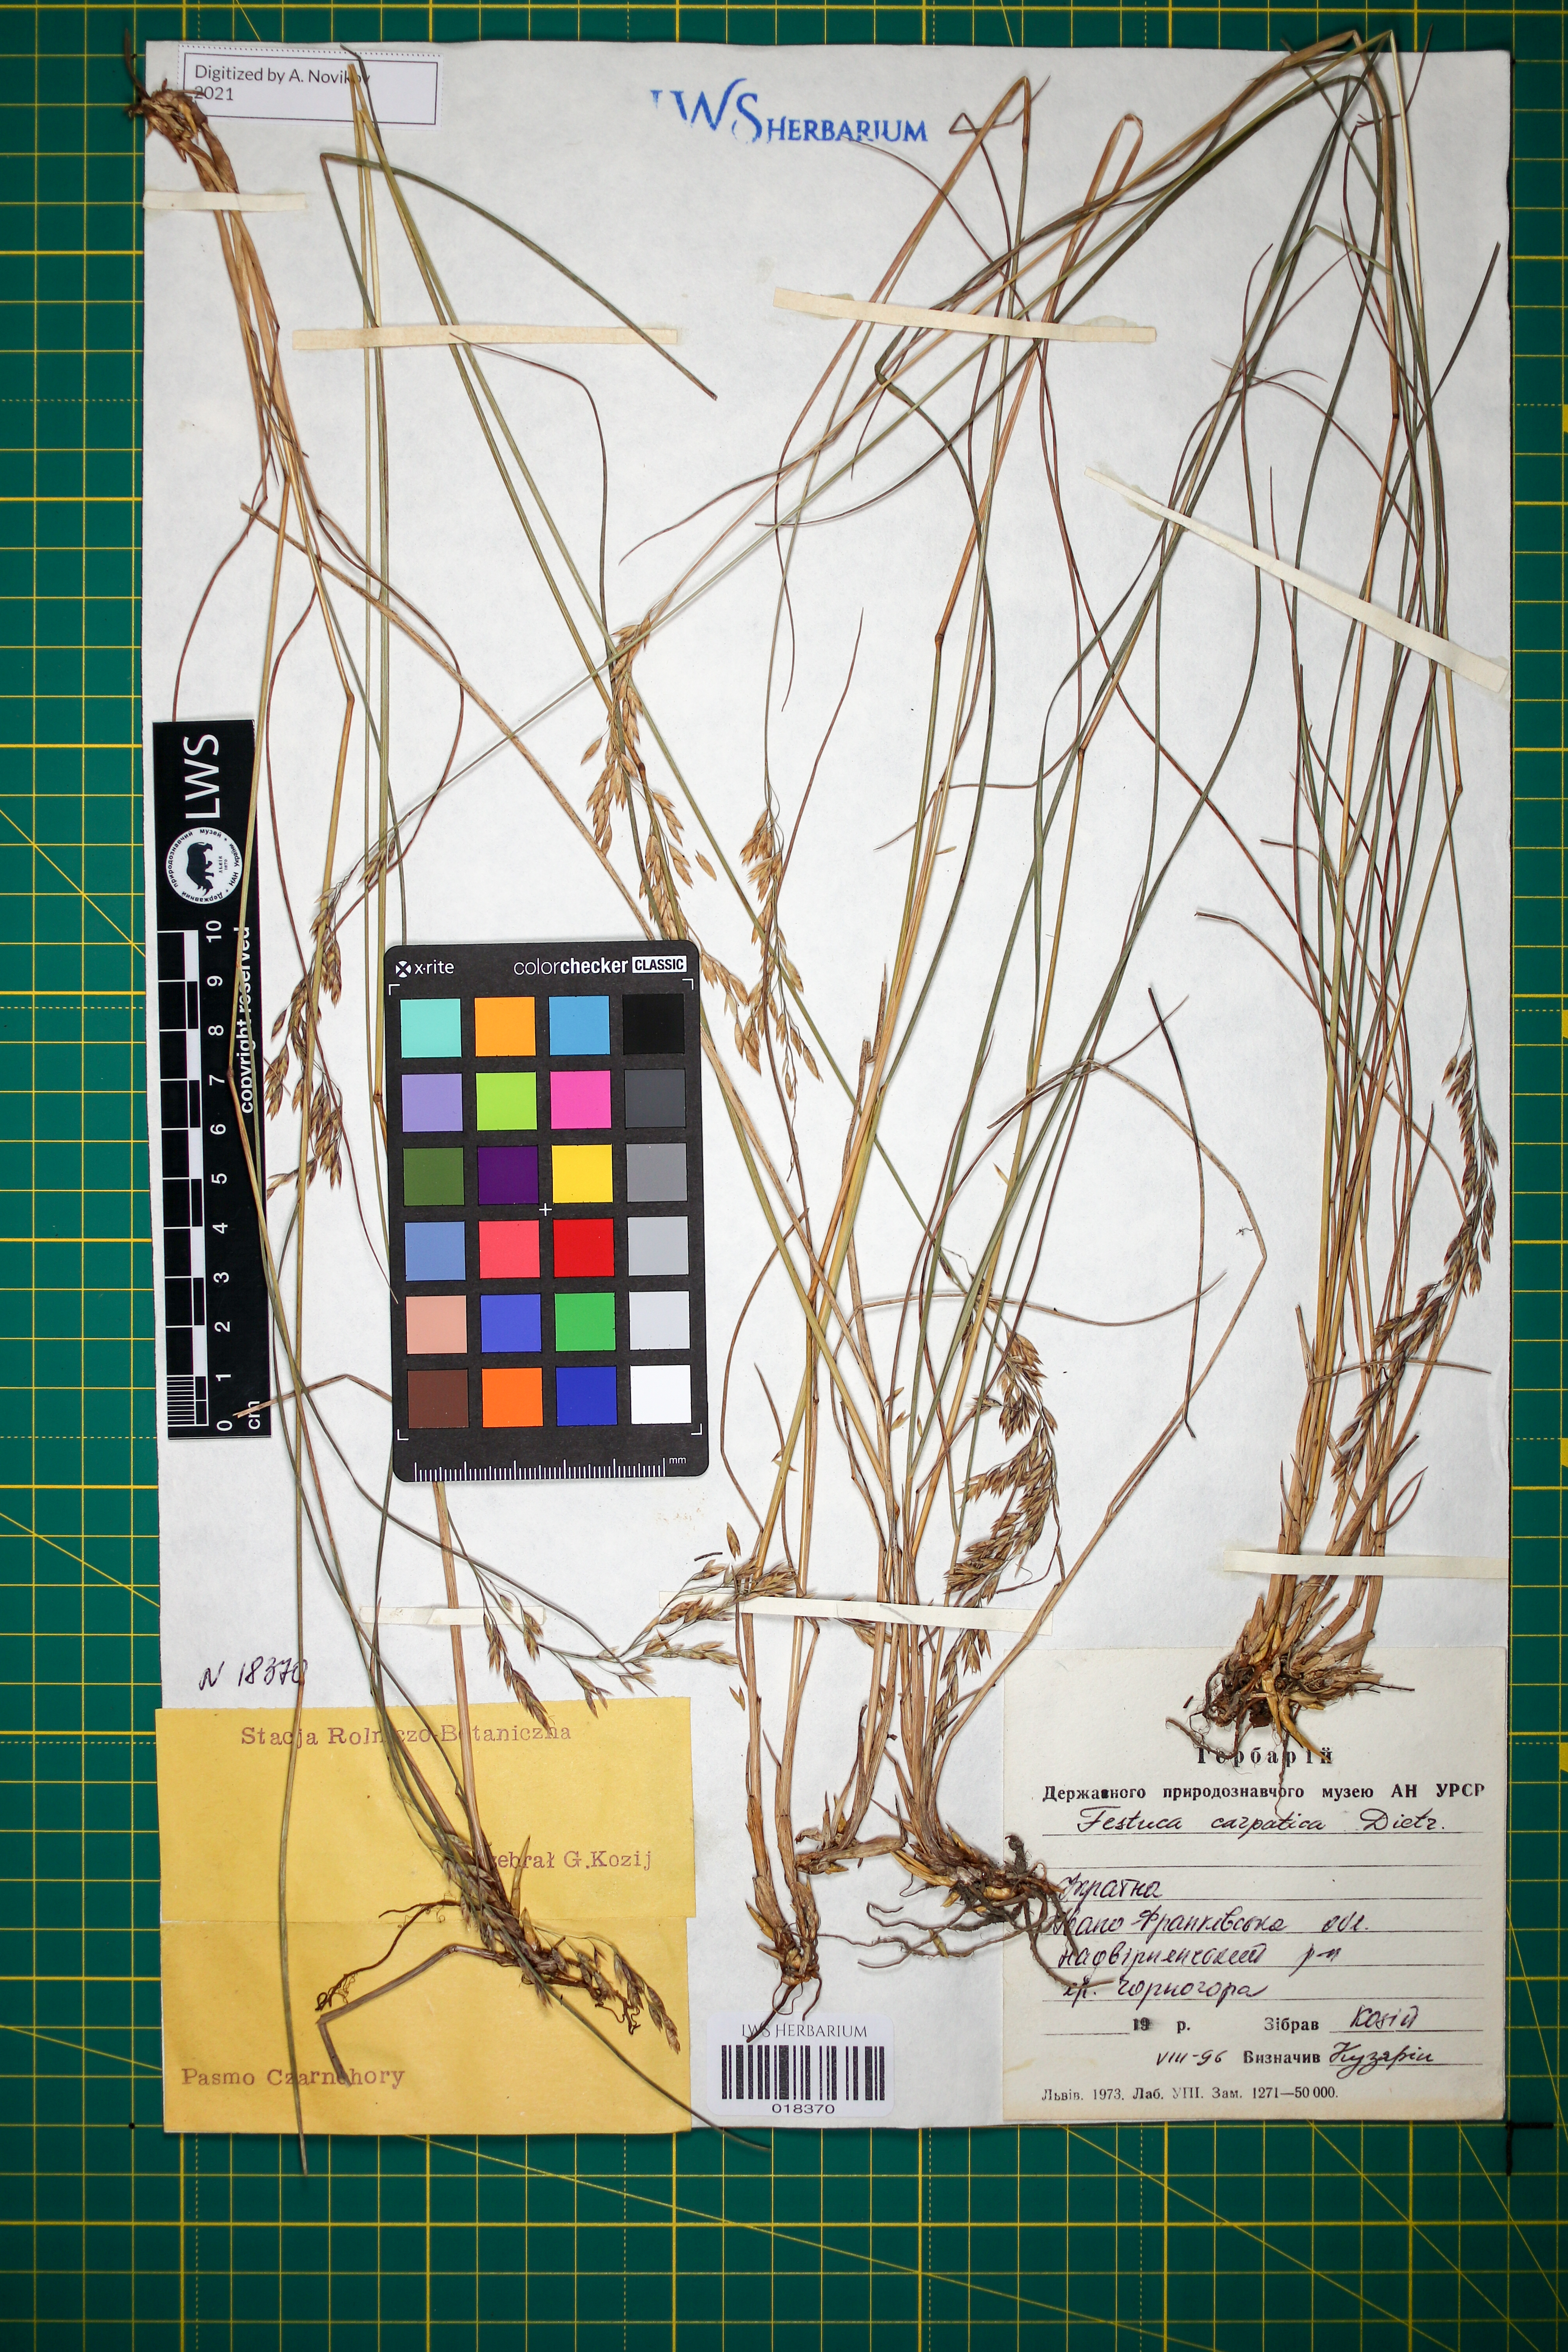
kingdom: Plantae
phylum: Tracheophyta
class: Liliopsida
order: Poales
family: Poaceae
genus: Festuca
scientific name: Festuca carpatica
